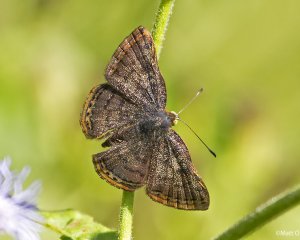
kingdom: Animalia
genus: Caria
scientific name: Caria ino
